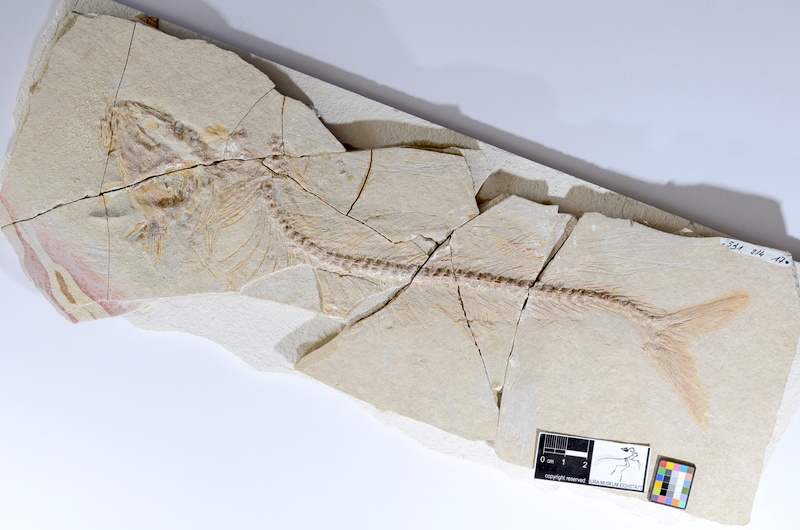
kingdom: Animalia
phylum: Chordata
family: Allothrissopidae
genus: Allothrissops
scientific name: Allothrissops
